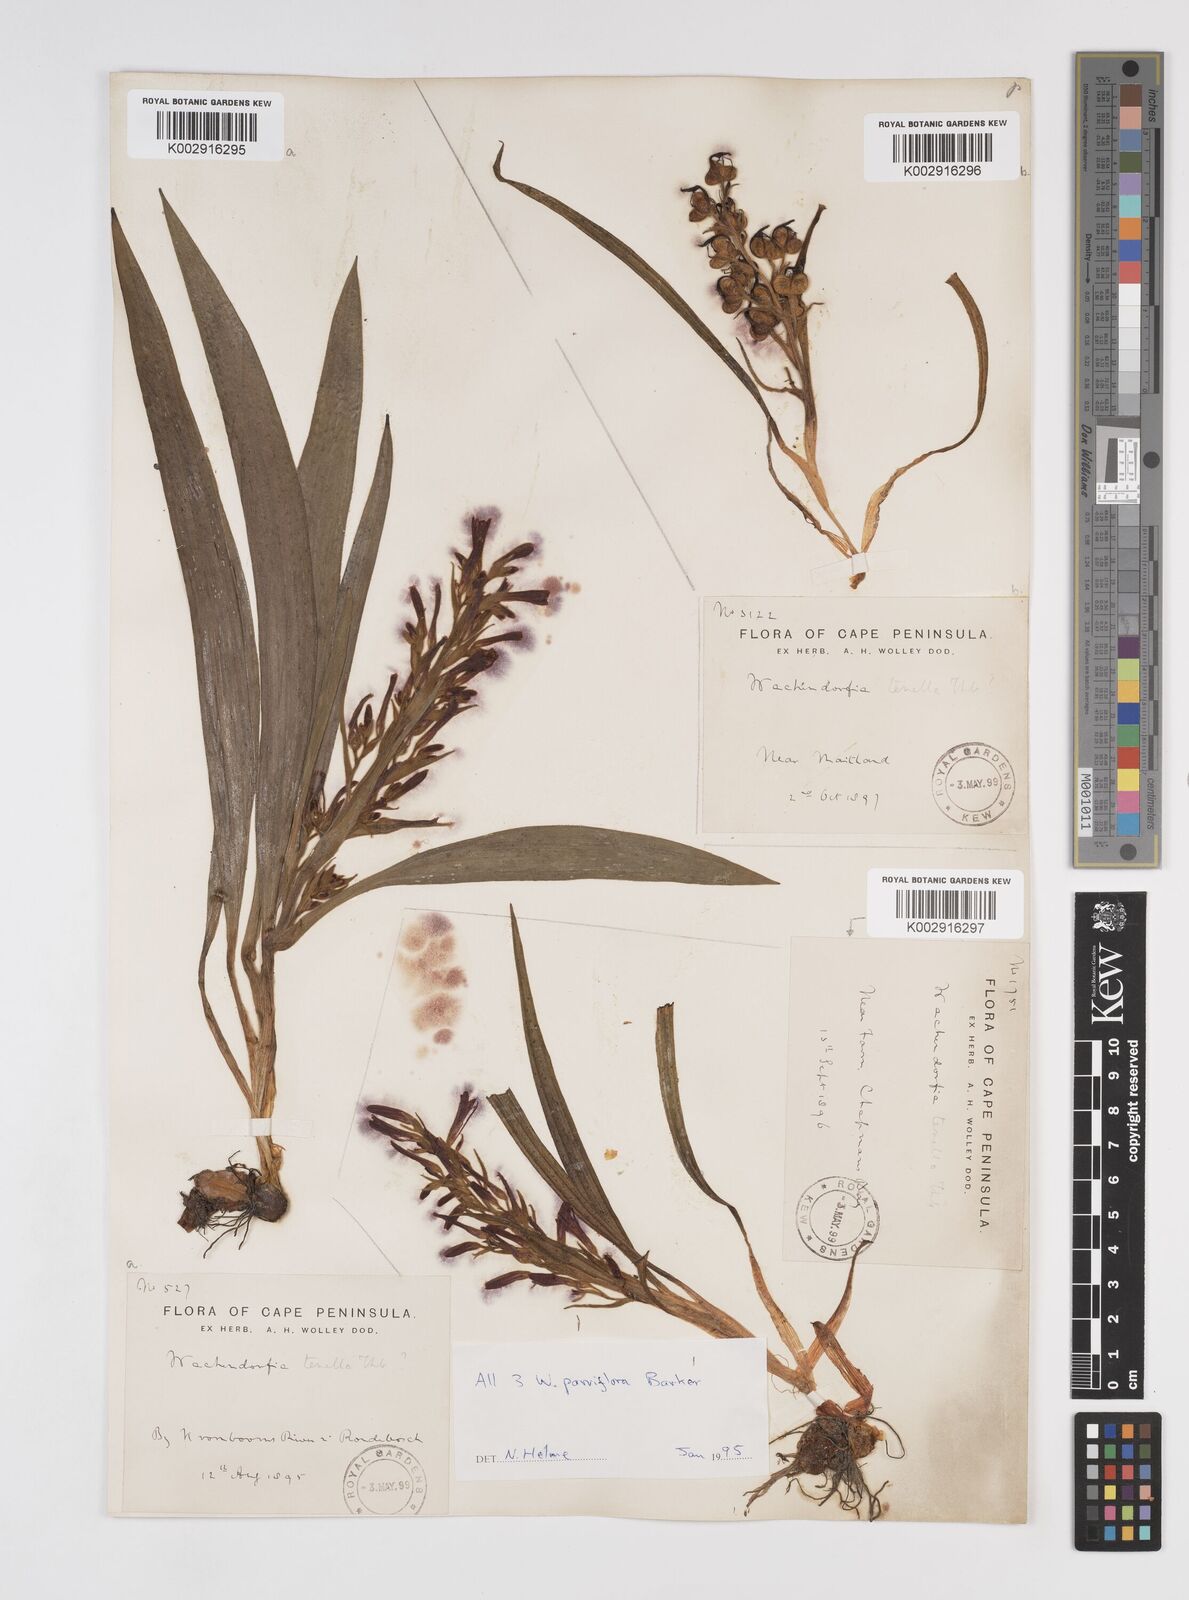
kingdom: Plantae
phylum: Tracheophyta
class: Liliopsida
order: Commelinales
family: Haemodoraceae
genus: Wachendorfia
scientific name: Wachendorfia multiflora
